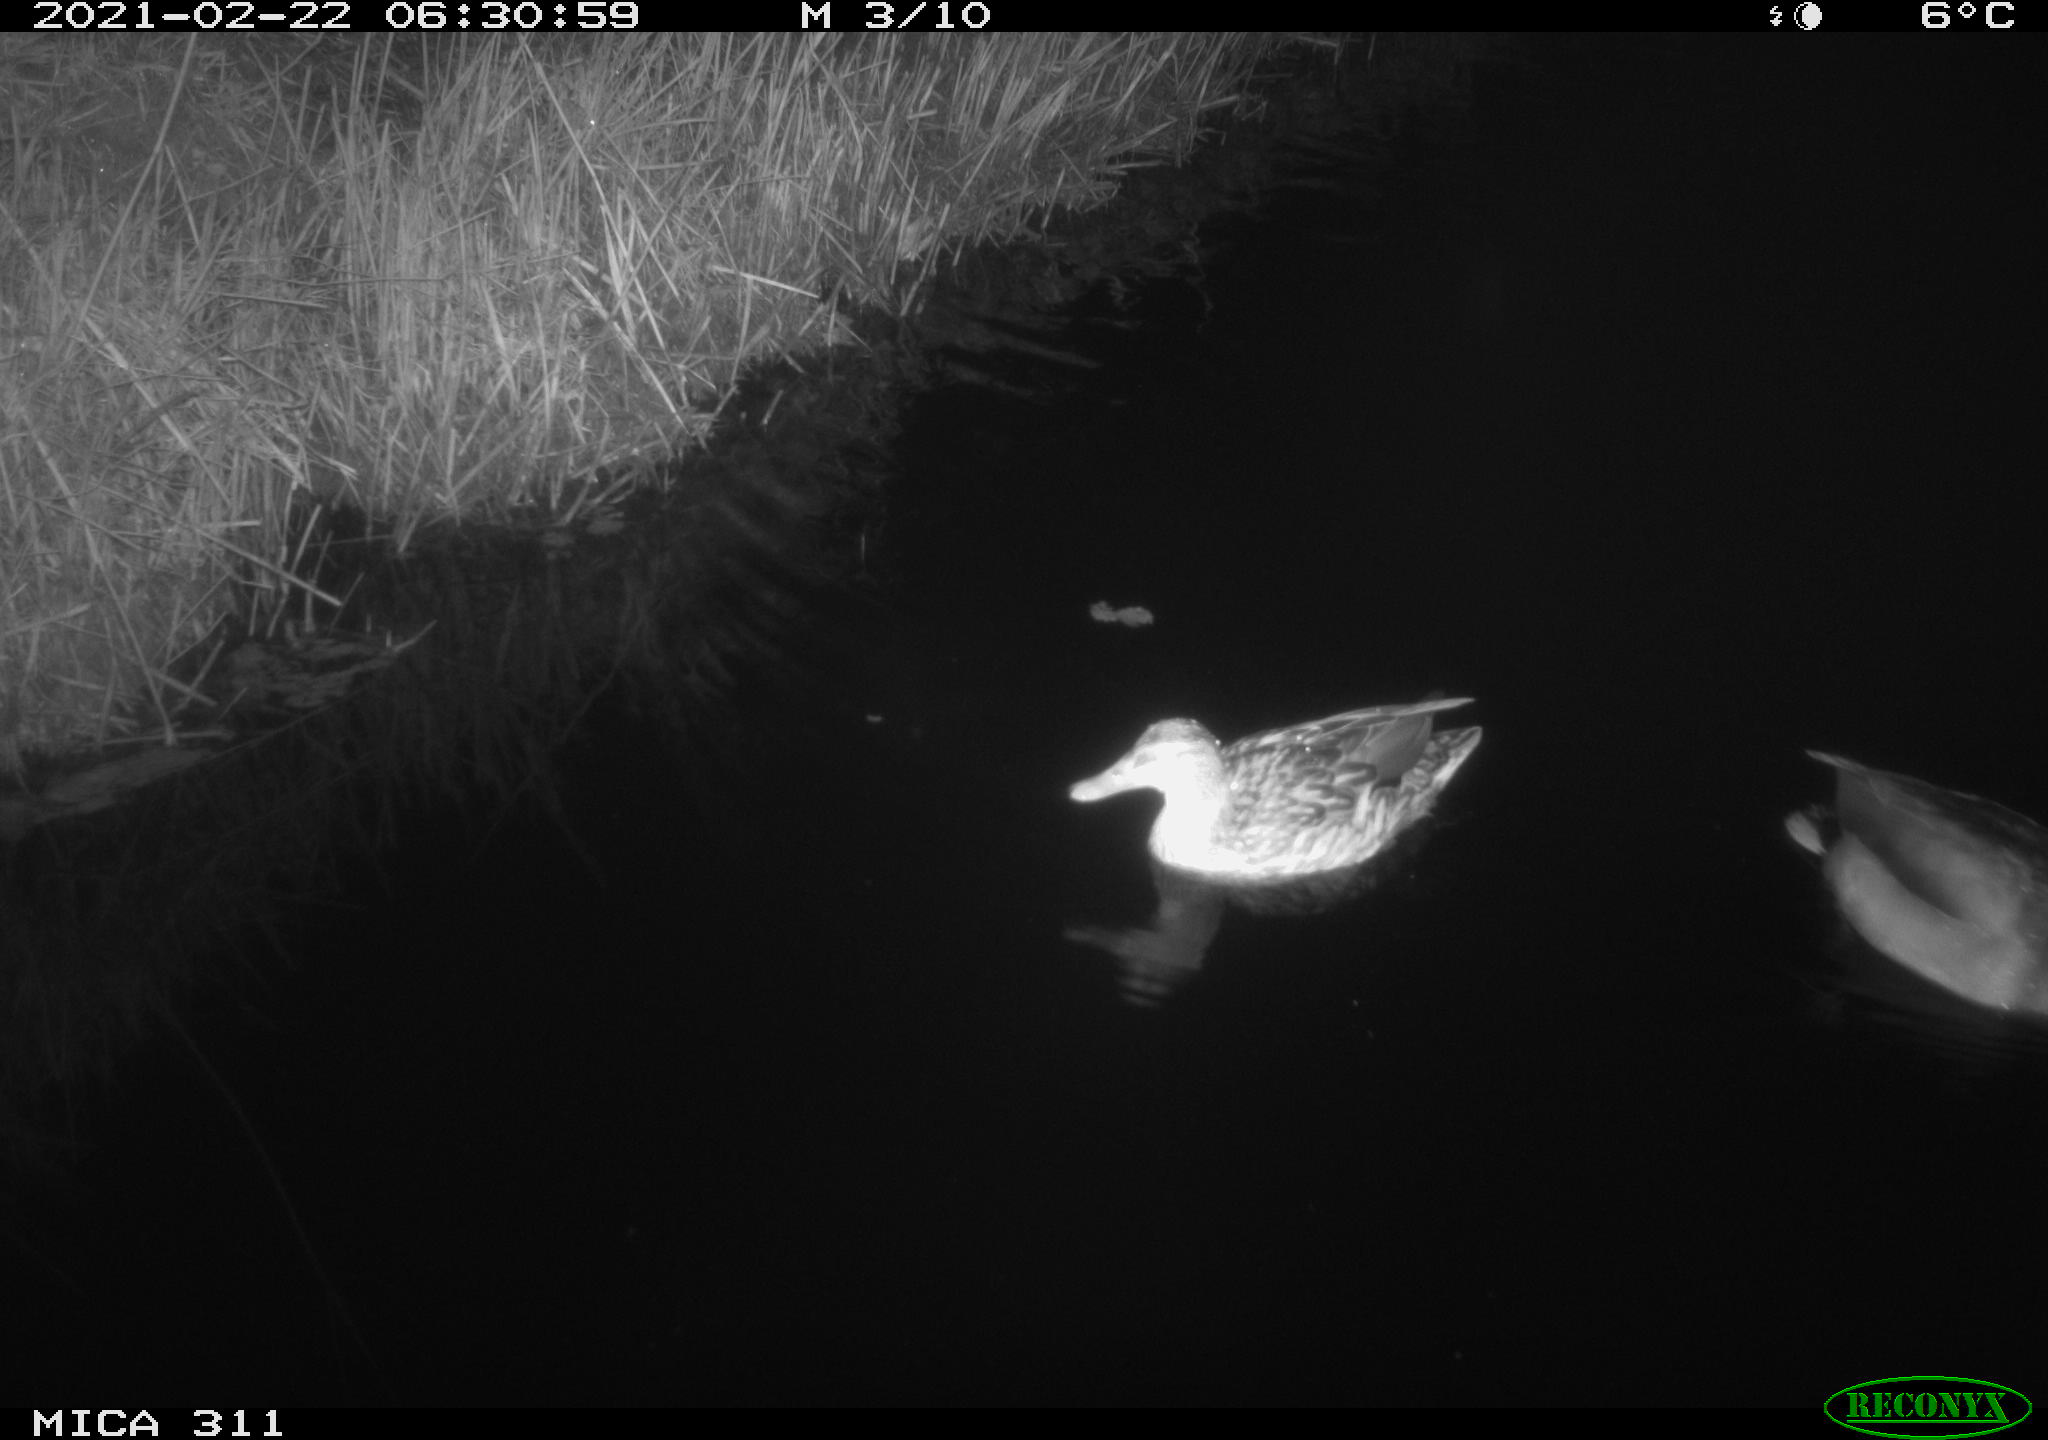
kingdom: Animalia
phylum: Chordata
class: Aves
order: Anseriformes
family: Anatidae
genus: Anas
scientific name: Anas
